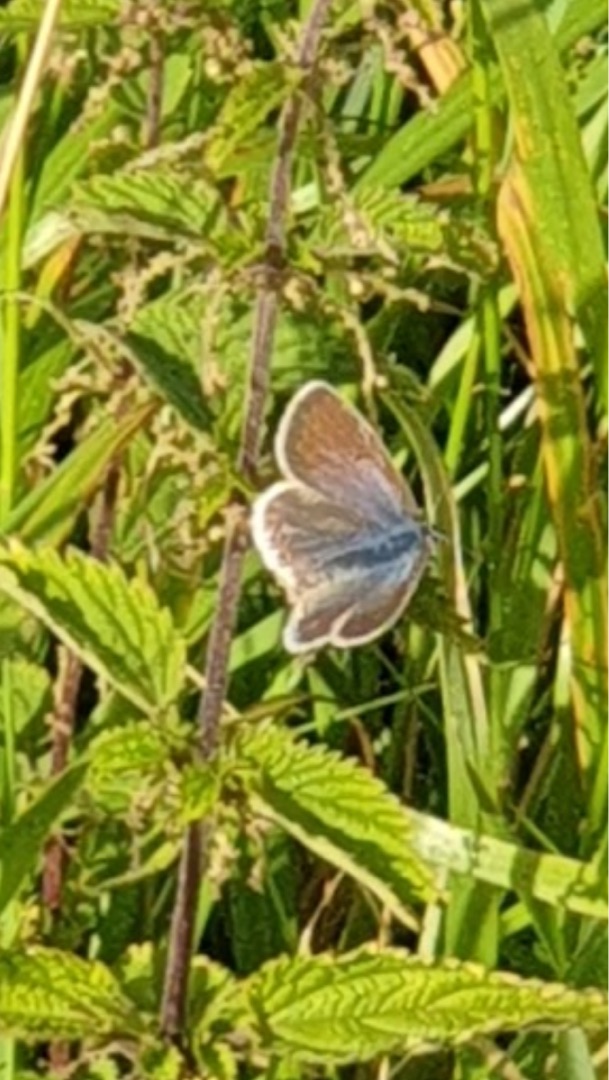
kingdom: Animalia
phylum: Arthropoda
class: Insecta
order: Lepidoptera
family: Lycaenidae
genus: Polyommatus
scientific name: Polyommatus icarus
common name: Almindelig blåfugl
